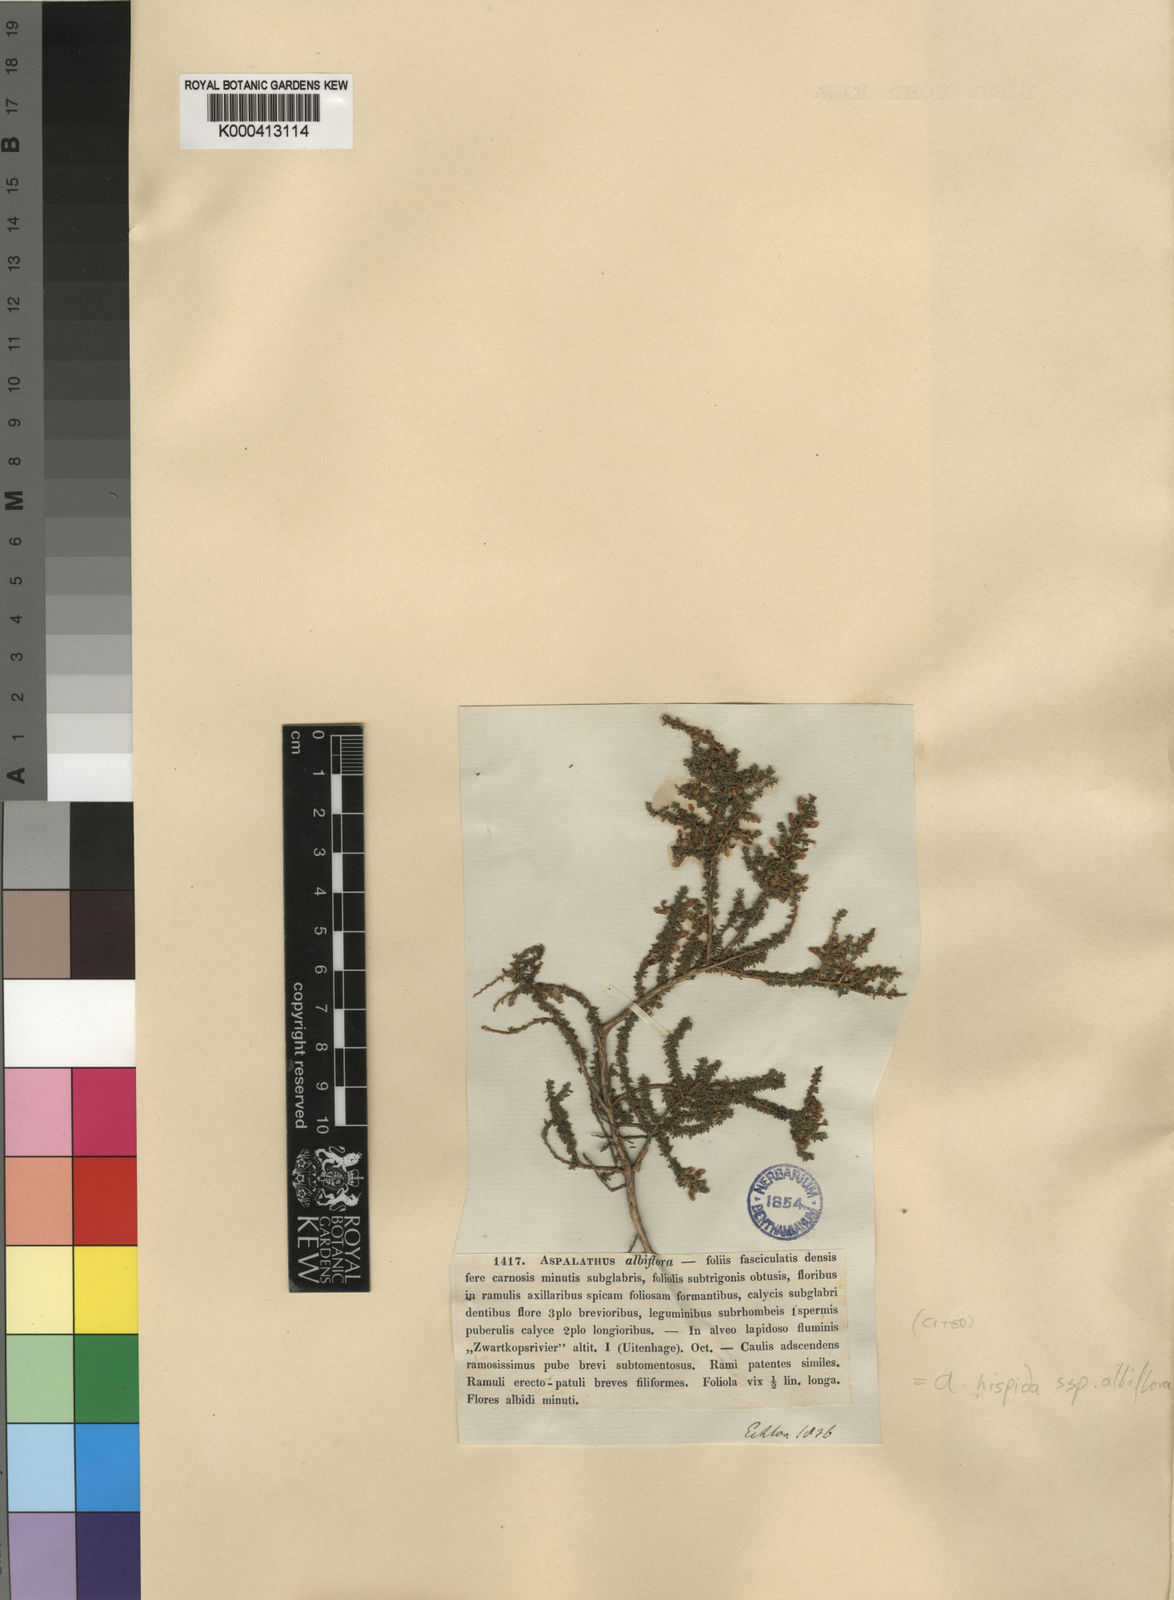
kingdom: Plantae
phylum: Tracheophyta
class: Magnoliopsida
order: Fabales
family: Fabaceae
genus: Aspalathus
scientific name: Aspalathus hispida
